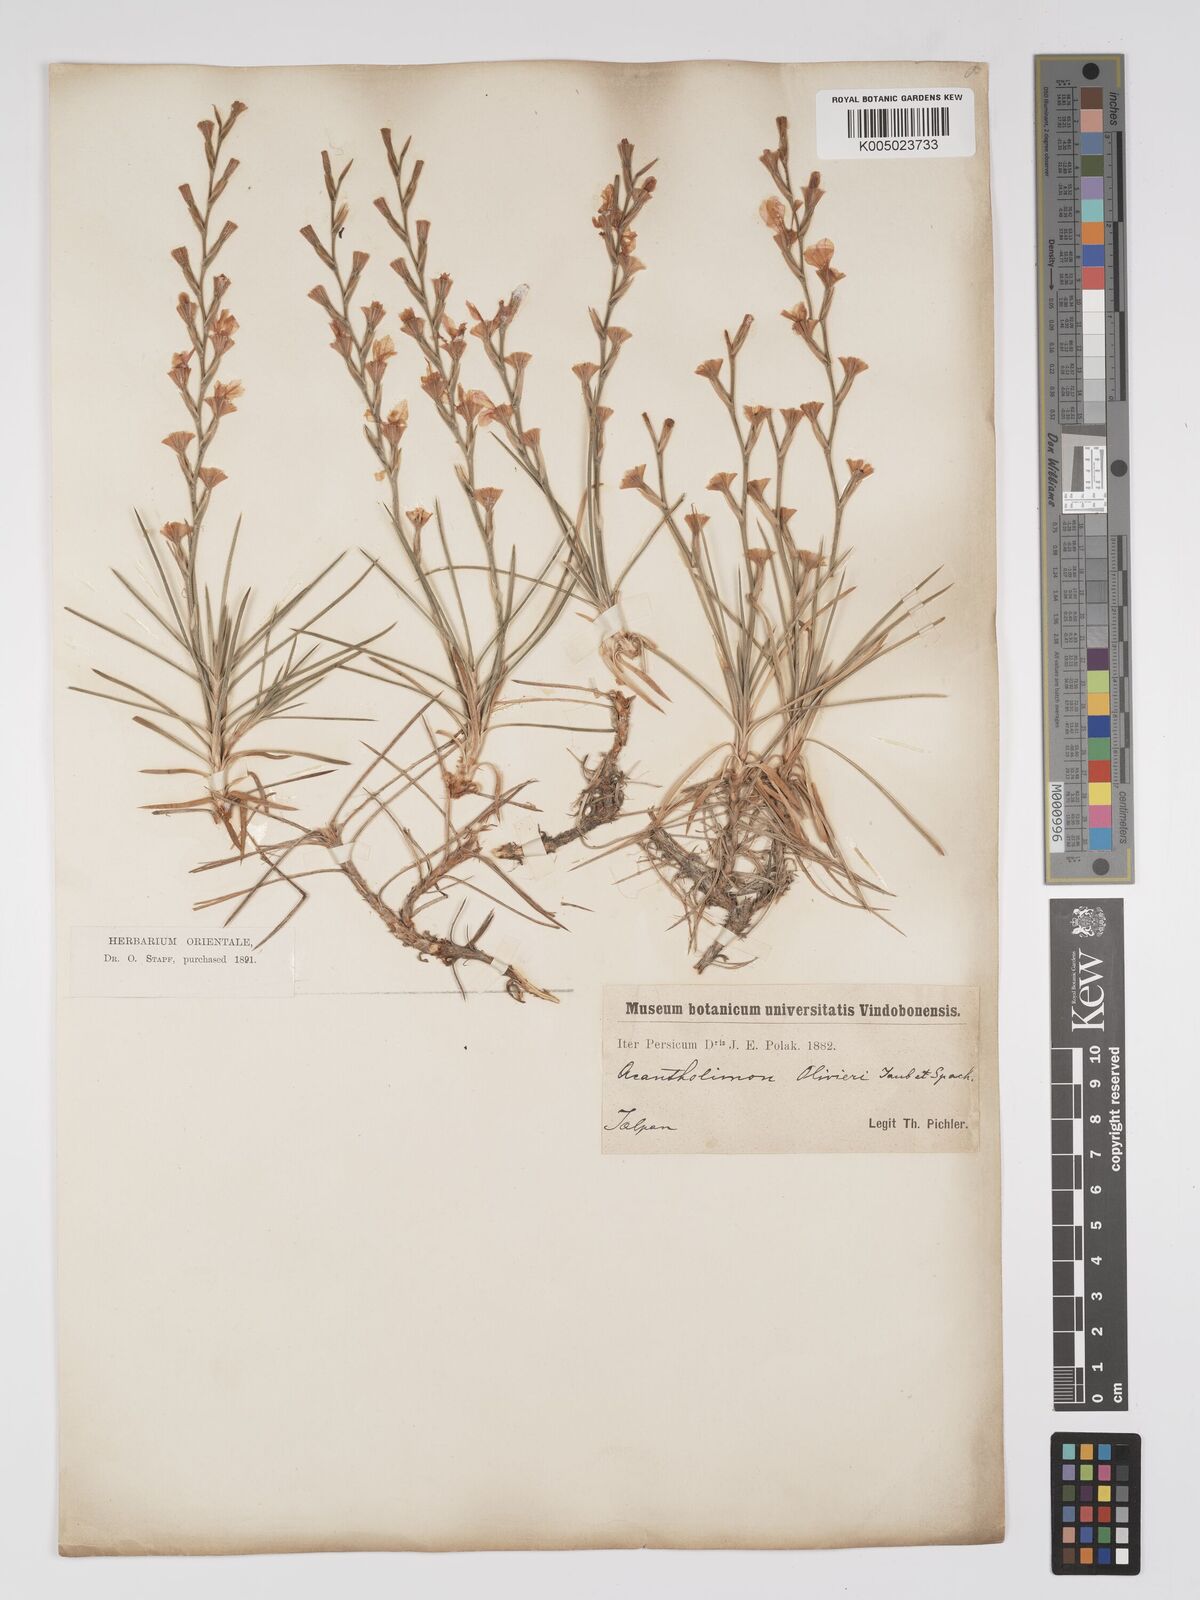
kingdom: Plantae
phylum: Tracheophyta
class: Magnoliopsida
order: Caryophyllales
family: Plumbaginaceae
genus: Acantholimon
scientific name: Acantholimon oliveri
